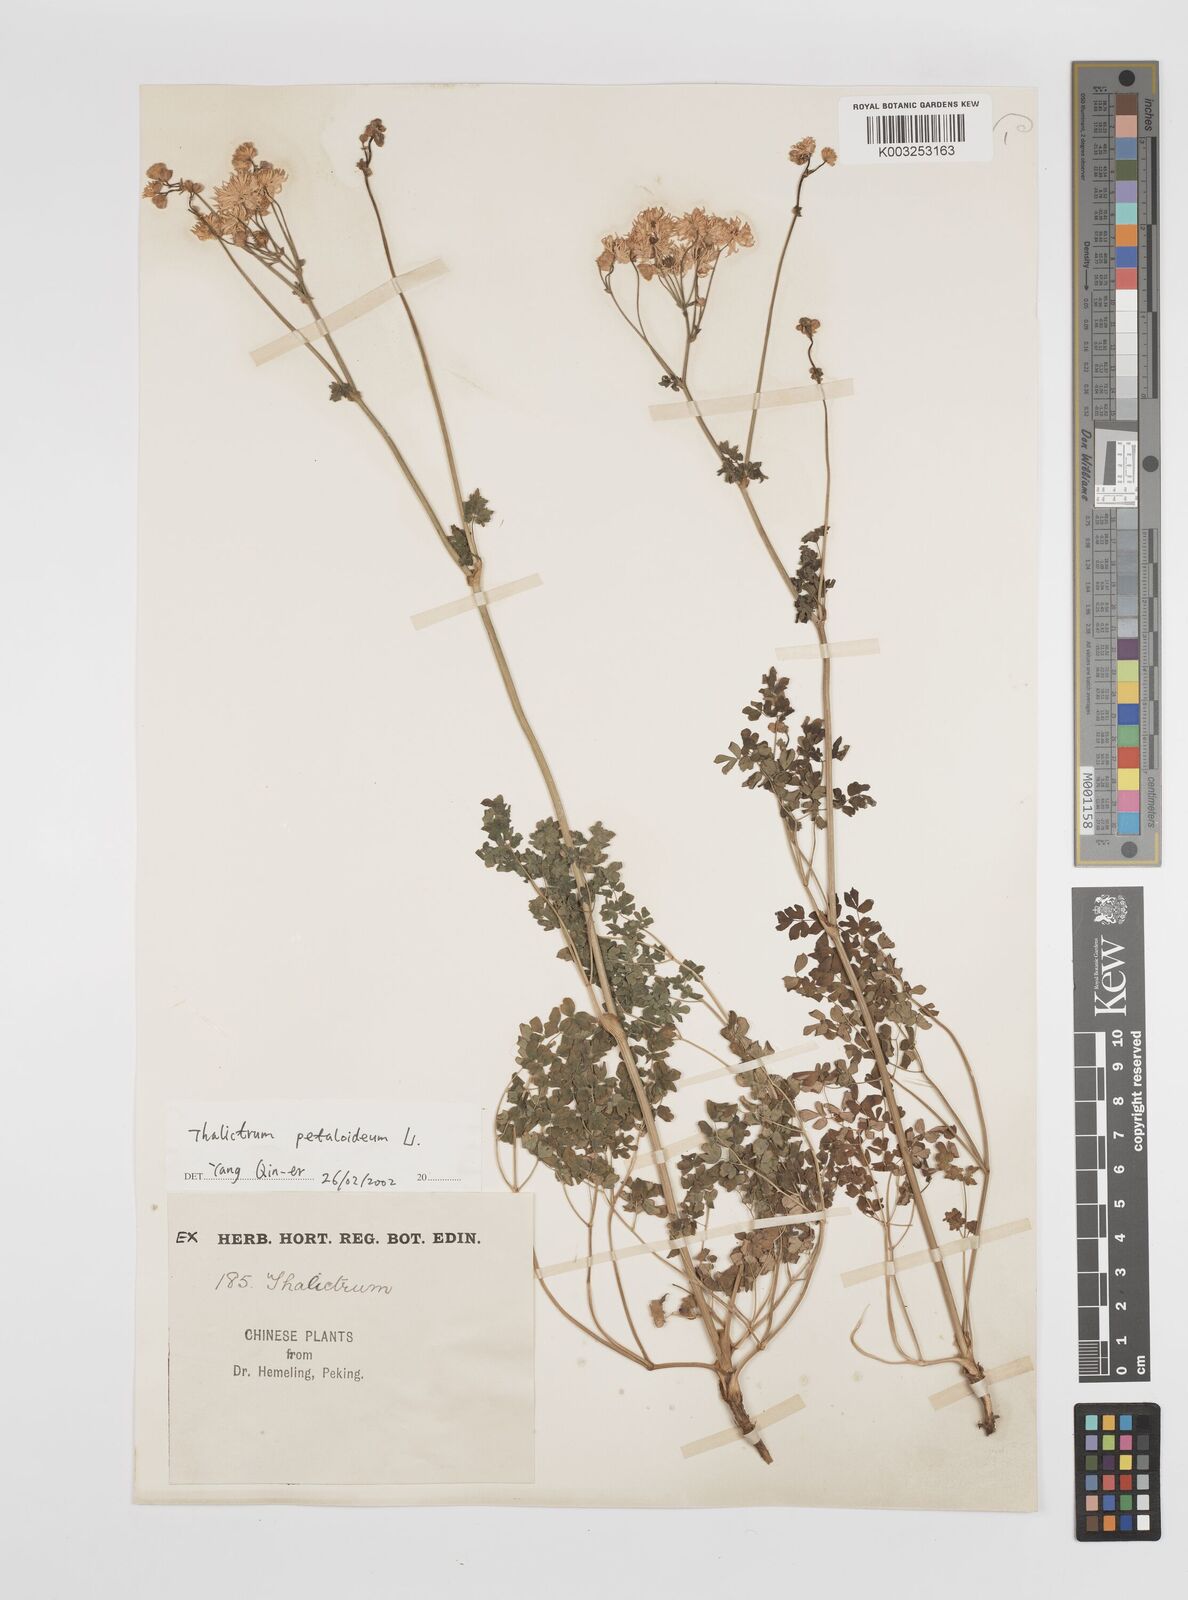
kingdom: Plantae
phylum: Tracheophyta
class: Magnoliopsida
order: Ranunculales
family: Ranunculaceae
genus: Thalictrum
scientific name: Thalictrum petaloideum
